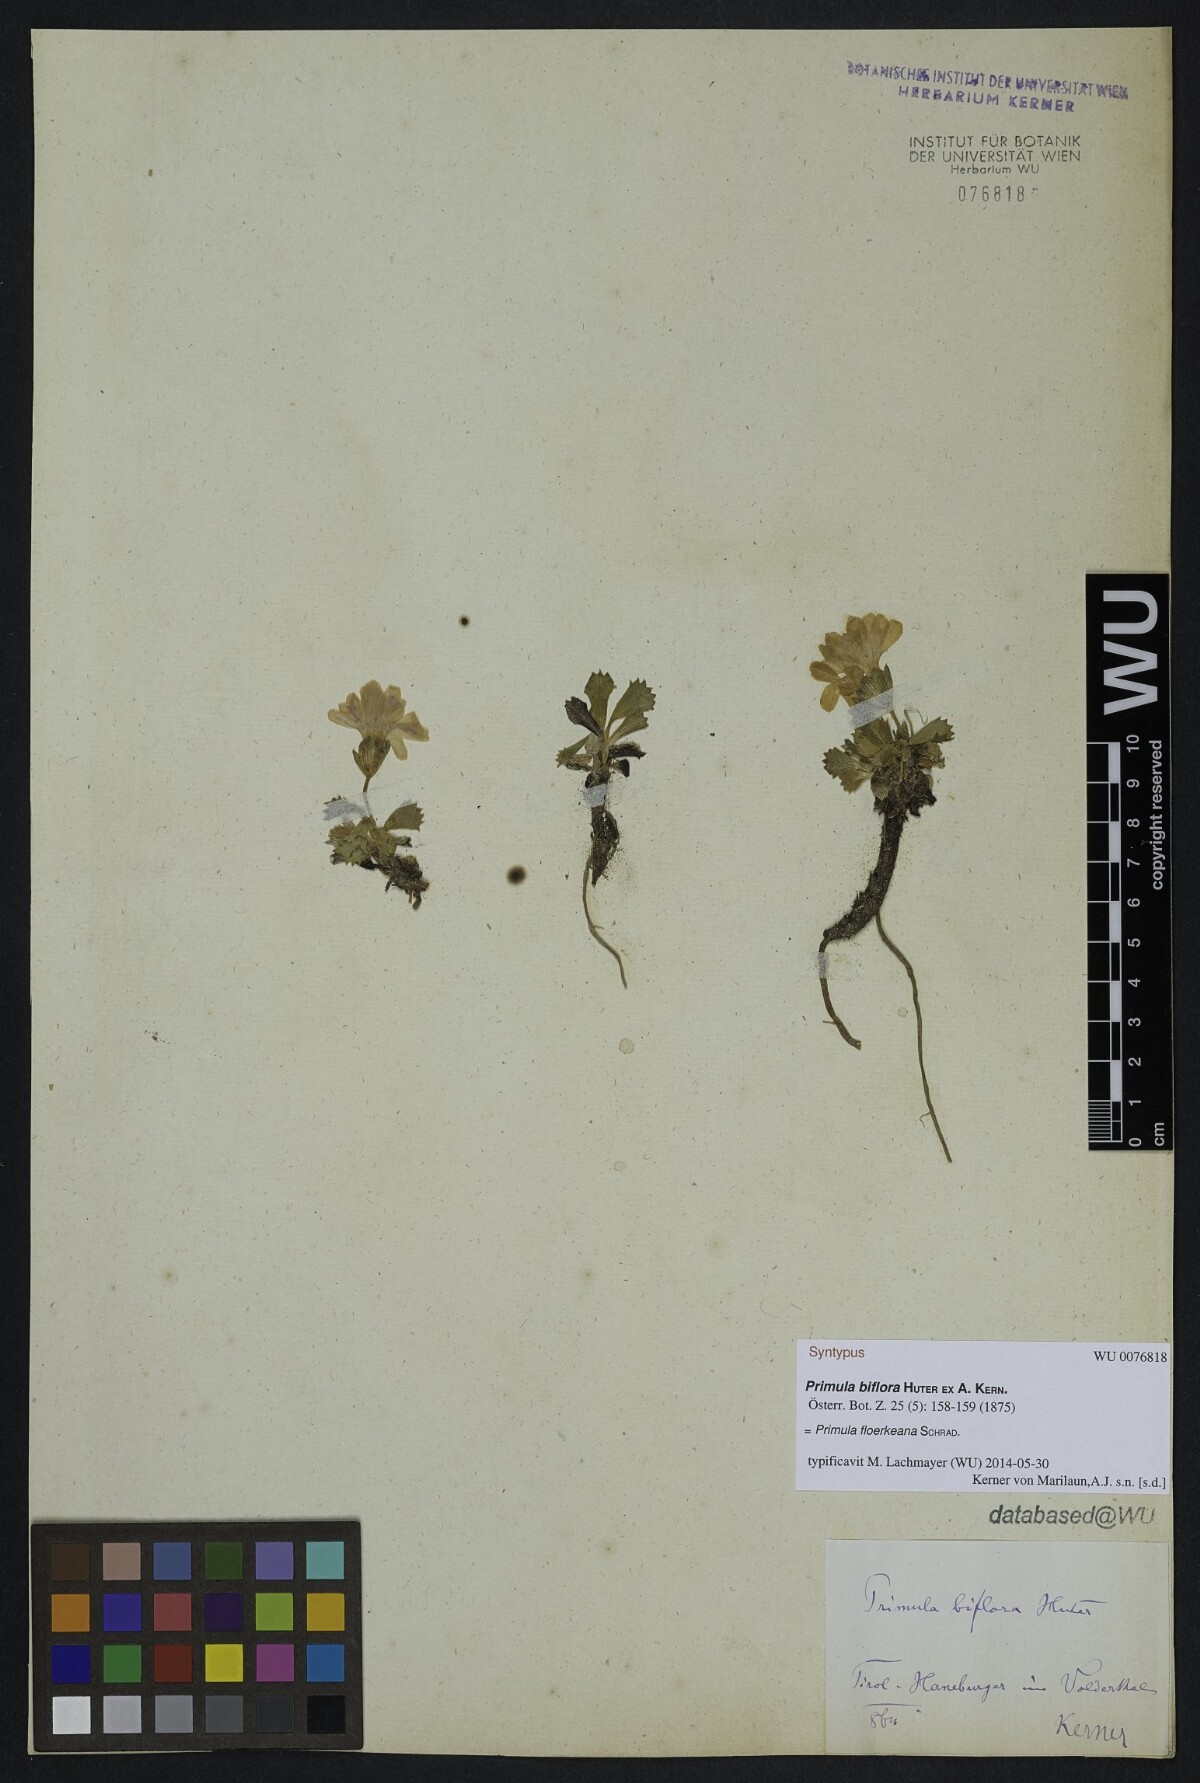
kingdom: Plantae
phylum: Tracheophyta
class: Magnoliopsida
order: Ericales
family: Primulaceae
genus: Primula
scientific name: Primula floerkeana
